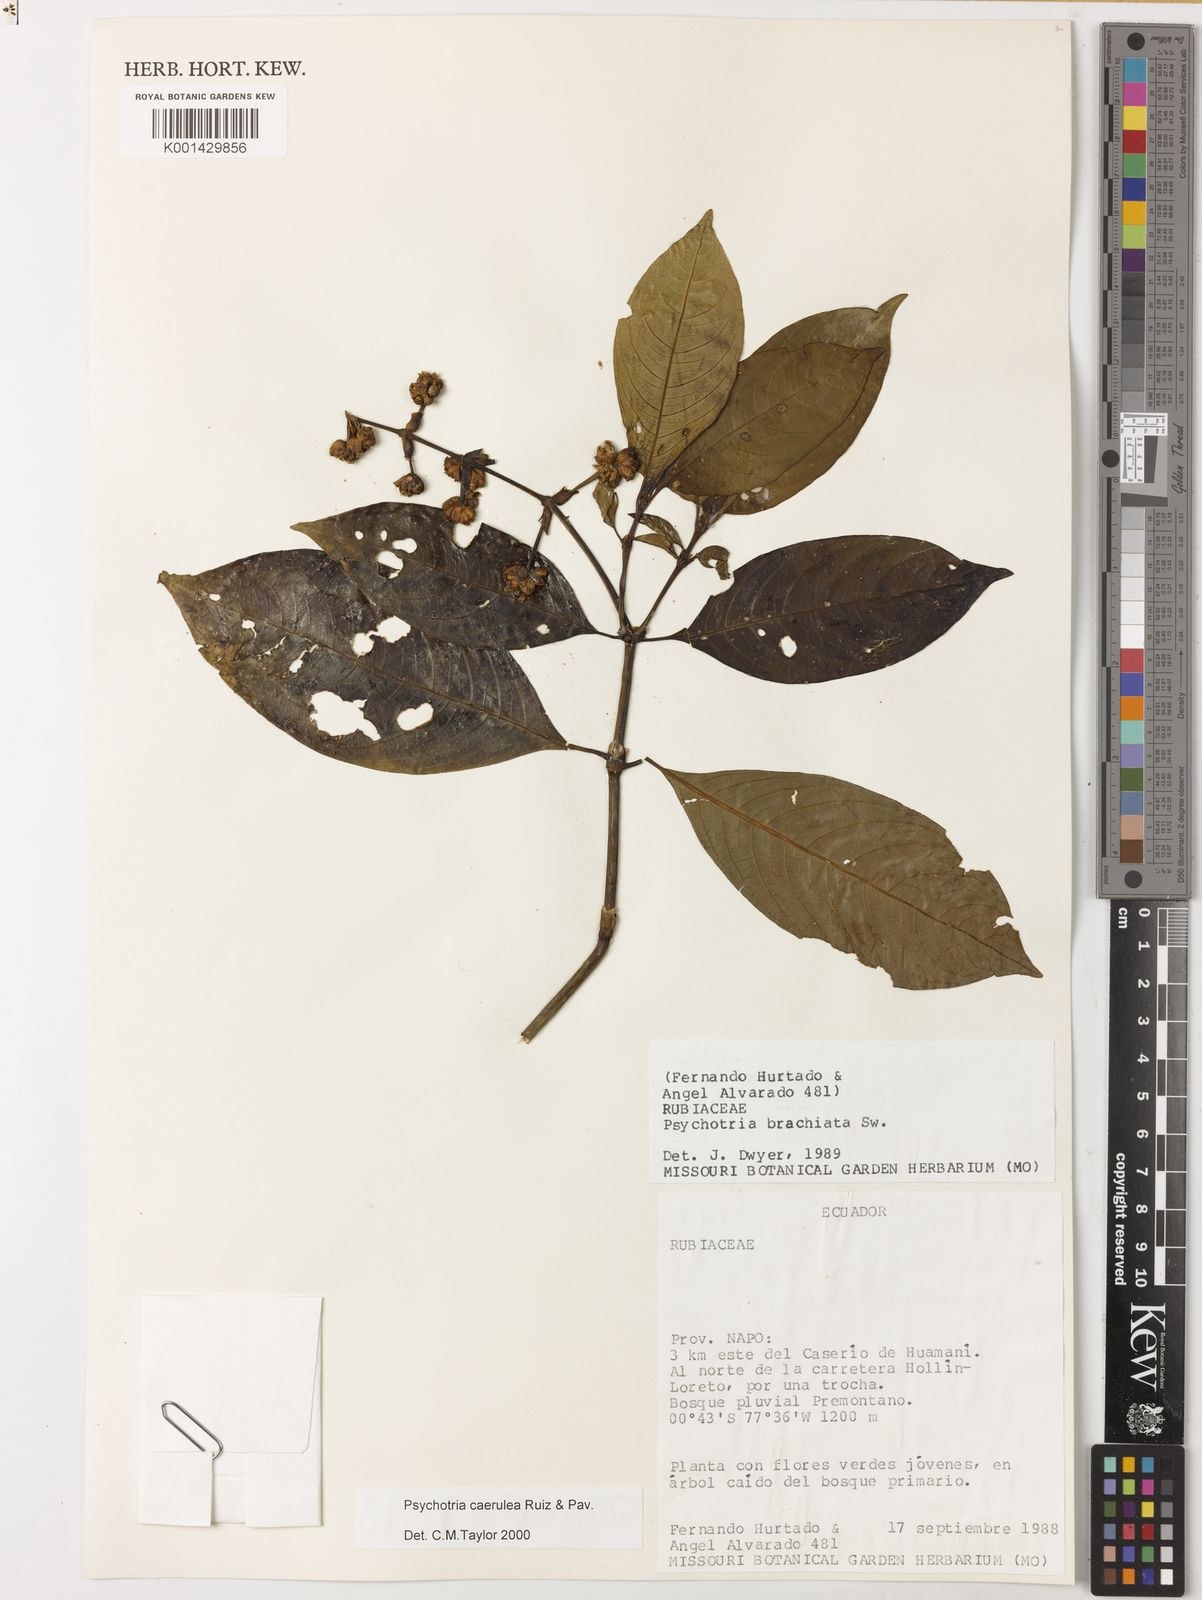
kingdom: Plantae
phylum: Tracheophyta
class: Magnoliopsida
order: Gentianales
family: Rubiaceae
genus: Palicourea
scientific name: Palicourea caerulea
